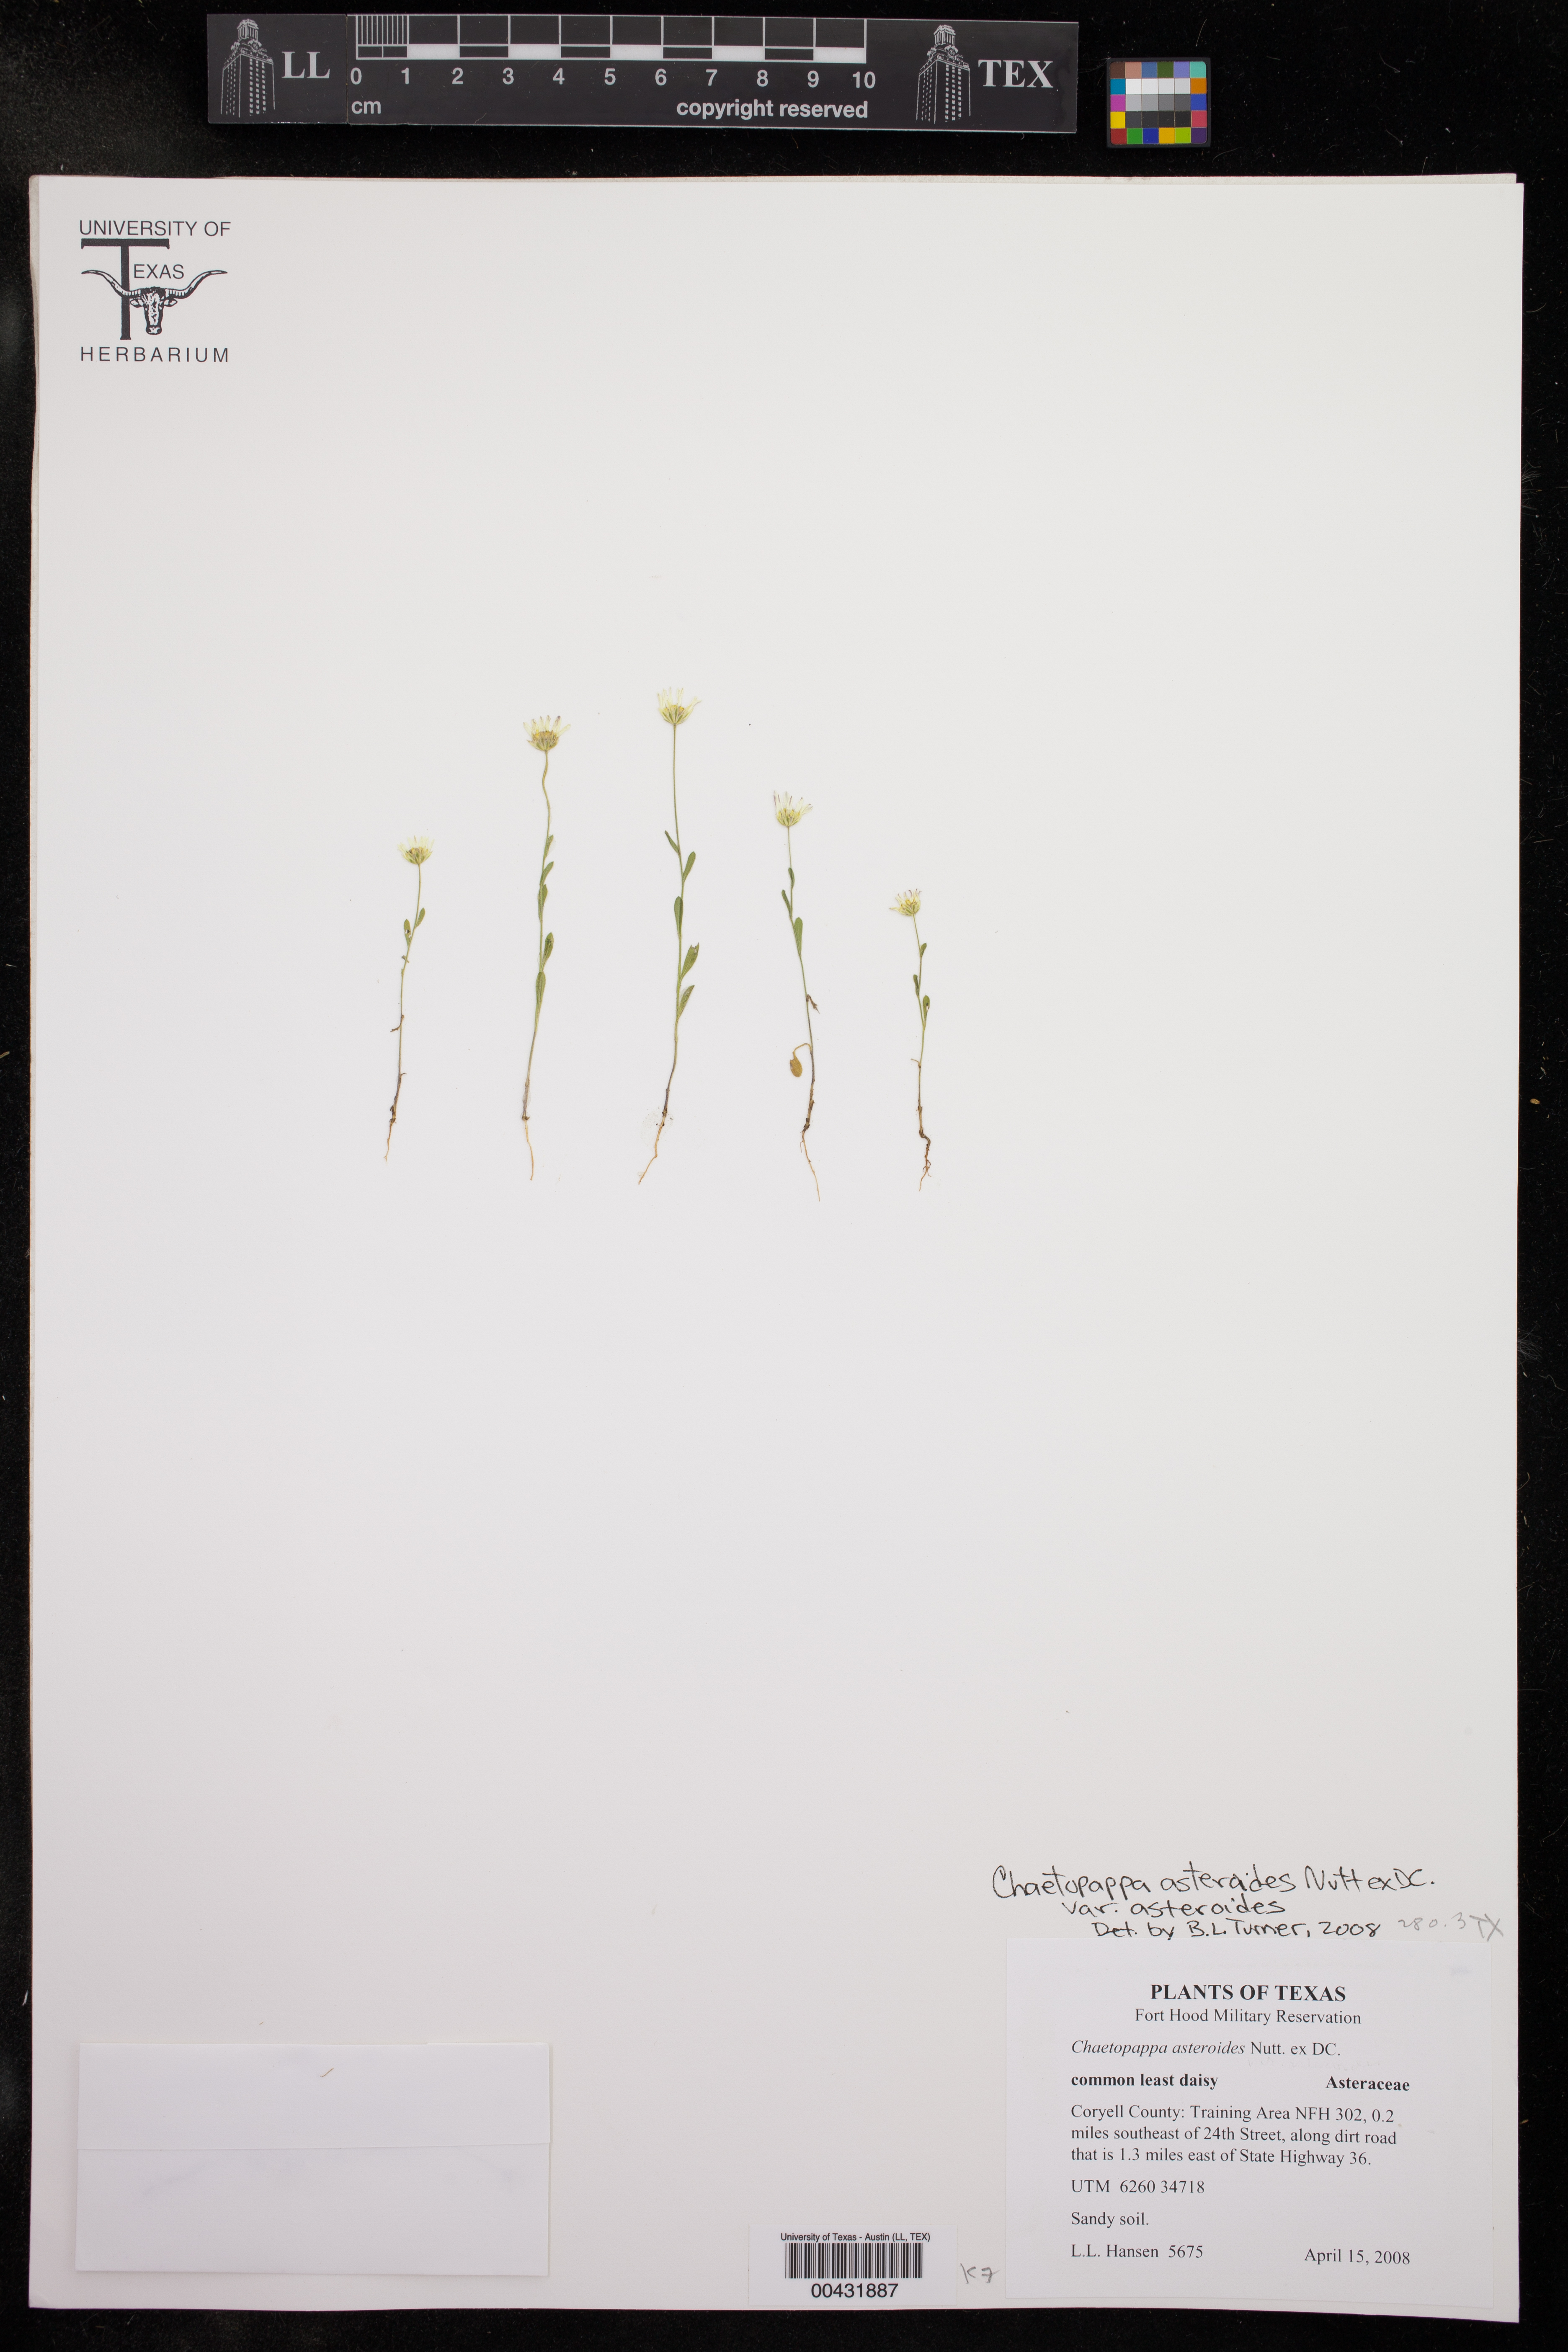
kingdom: Plantae
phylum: Tracheophyta
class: Magnoliopsida
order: Asterales
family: Asteraceae
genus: Chaetopappa
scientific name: Chaetopappa asteroides
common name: Tiny lazy daisy
